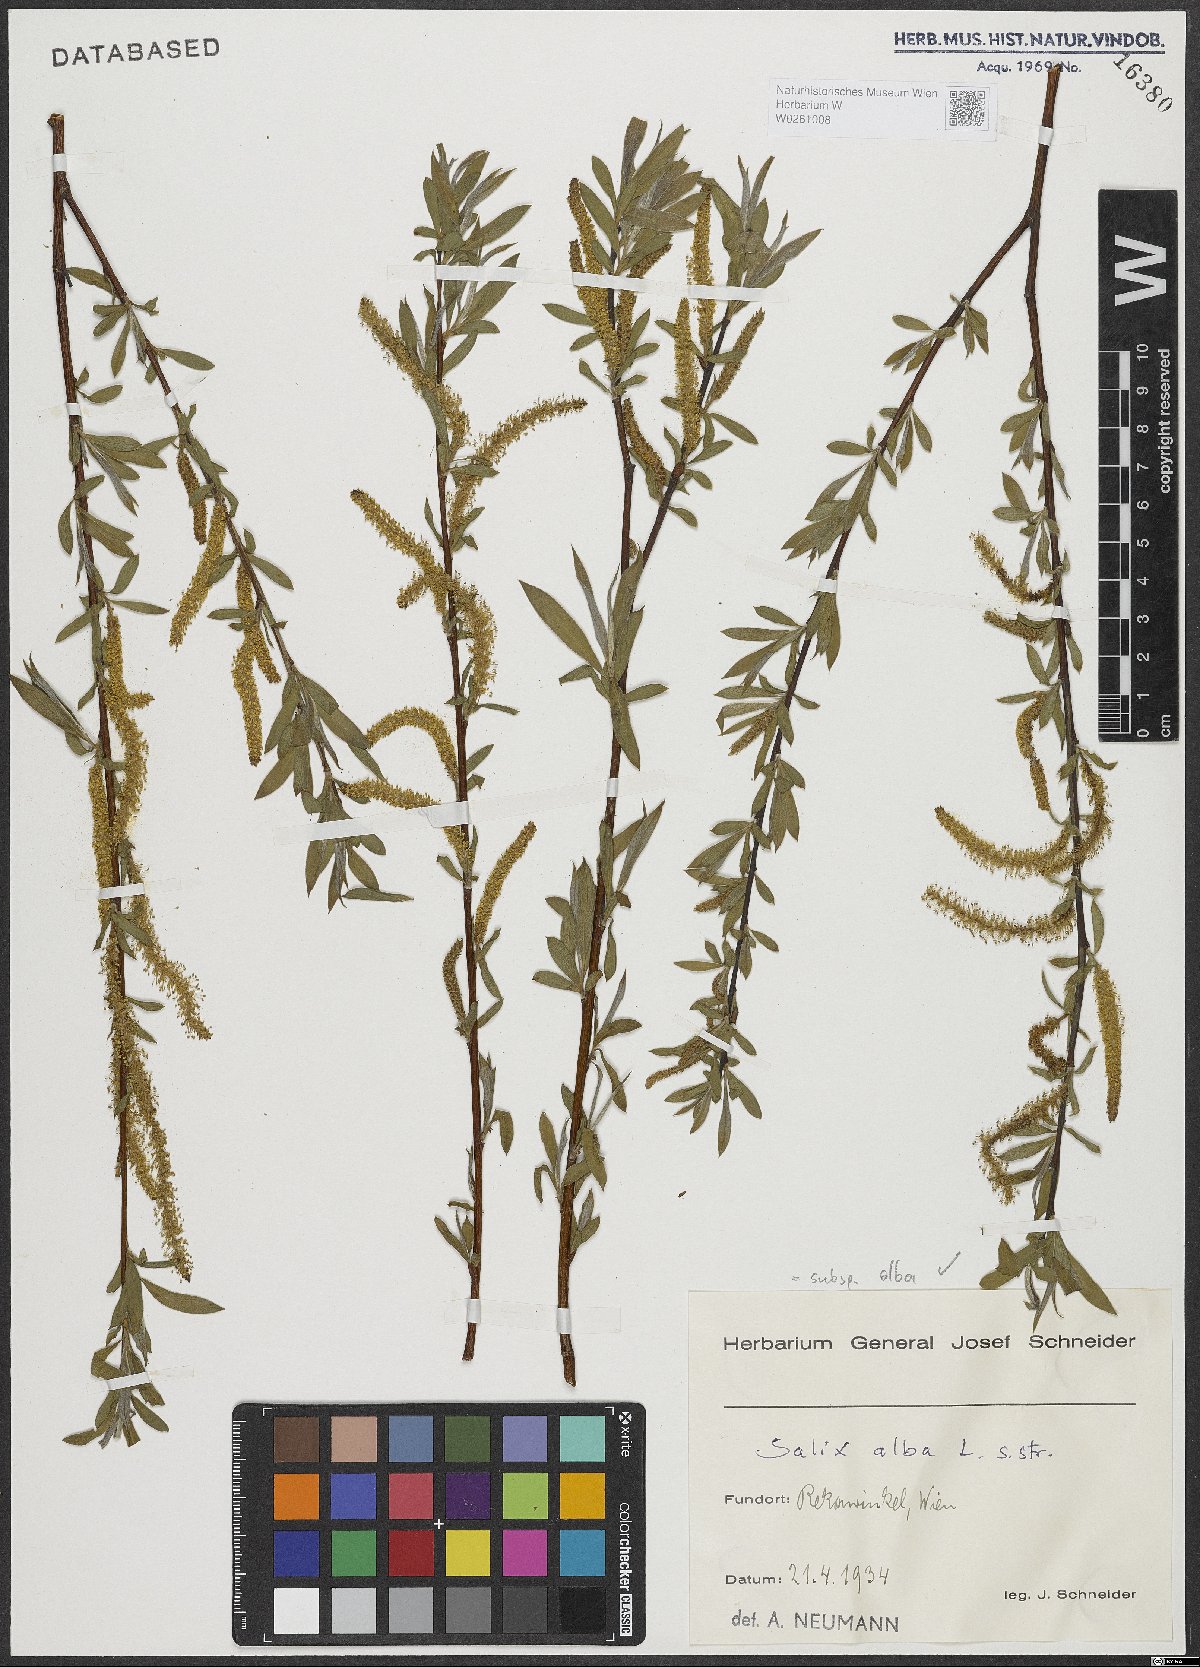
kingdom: Plantae
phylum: Tracheophyta
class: Magnoliopsida
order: Malpighiales
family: Salicaceae
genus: Salix
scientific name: Salix alba
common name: White willow
